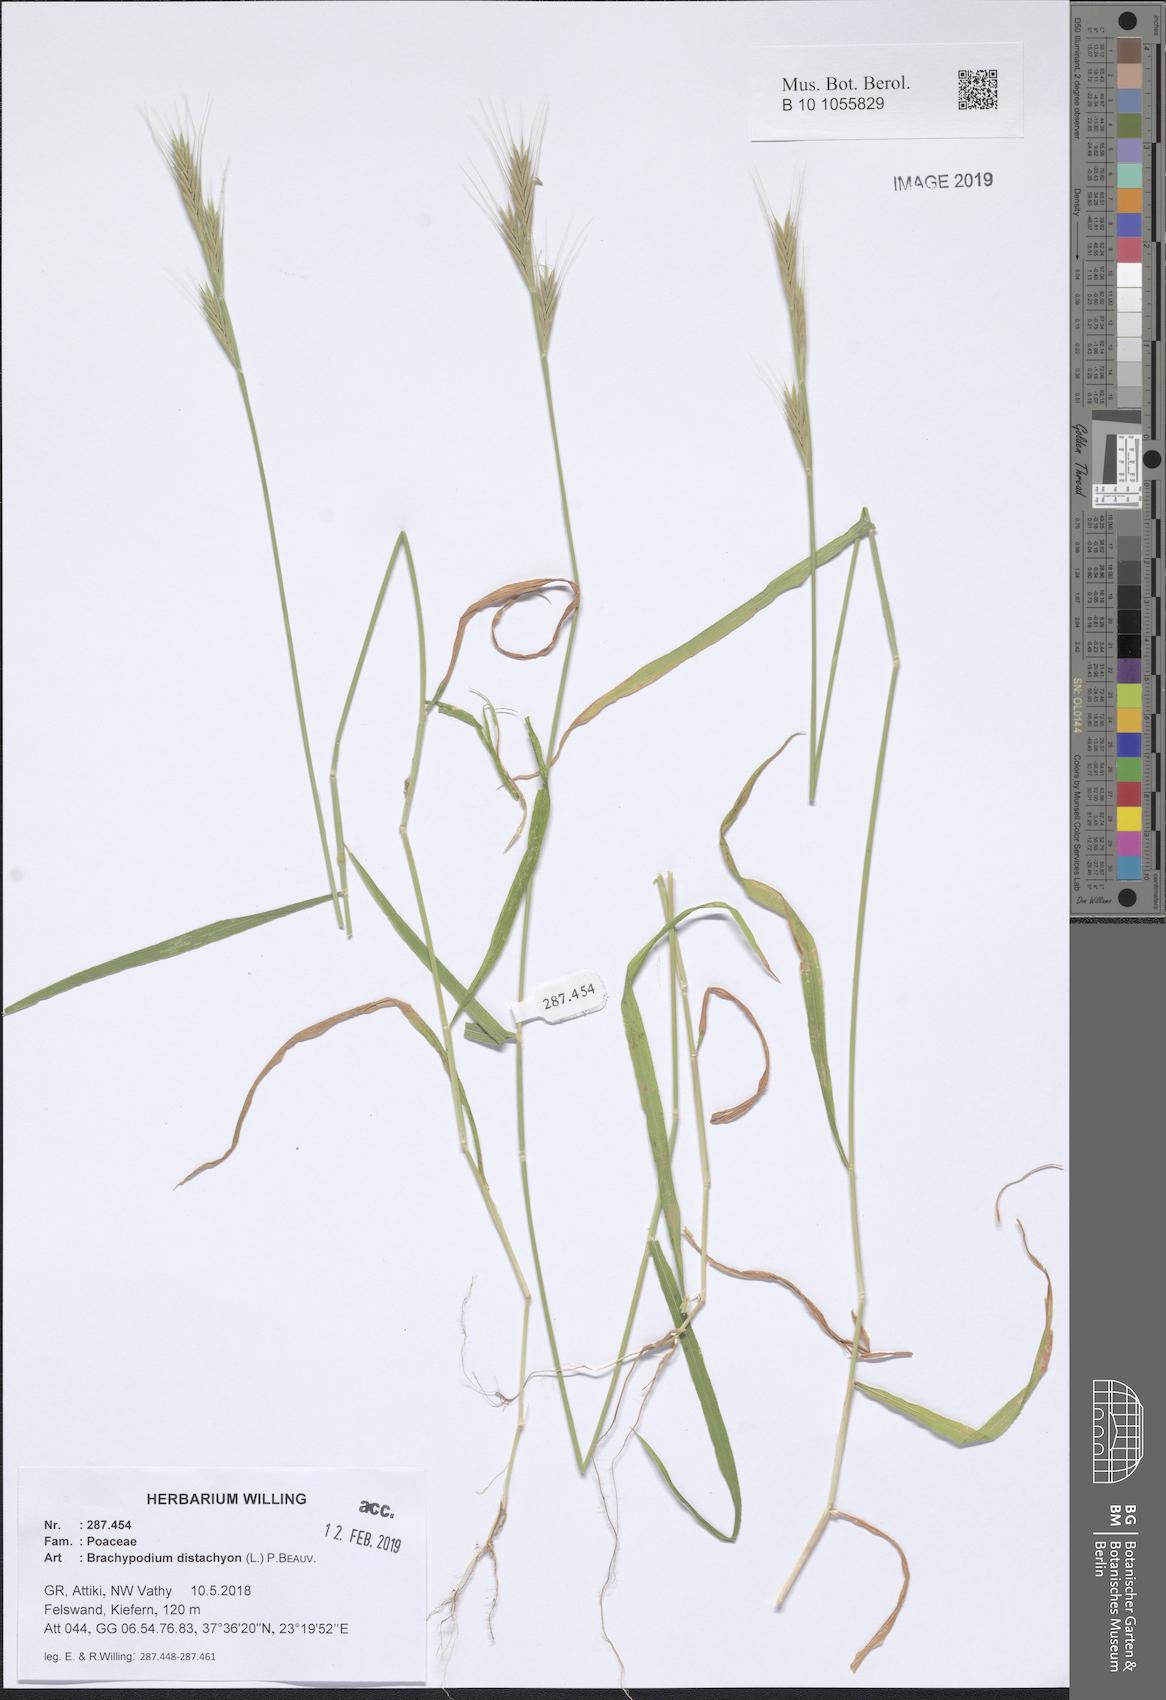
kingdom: Plantae
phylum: Tracheophyta
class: Liliopsida
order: Poales
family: Poaceae
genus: Brachypodium
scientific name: Brachypodium distachyon
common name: Stiff brome
